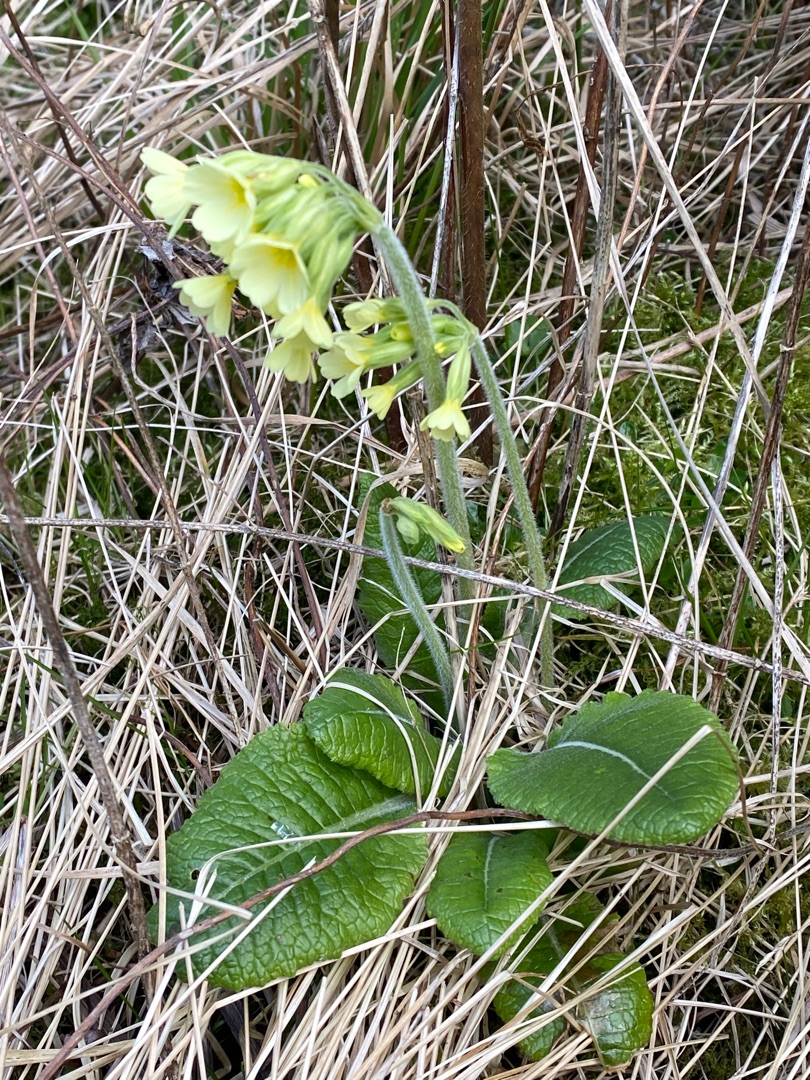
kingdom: Plantae
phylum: Tracheophyta
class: Magnoliopsida
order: Ericales
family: Primulaceae
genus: Primula
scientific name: Primula elatior
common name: Fladkravet kodriver
